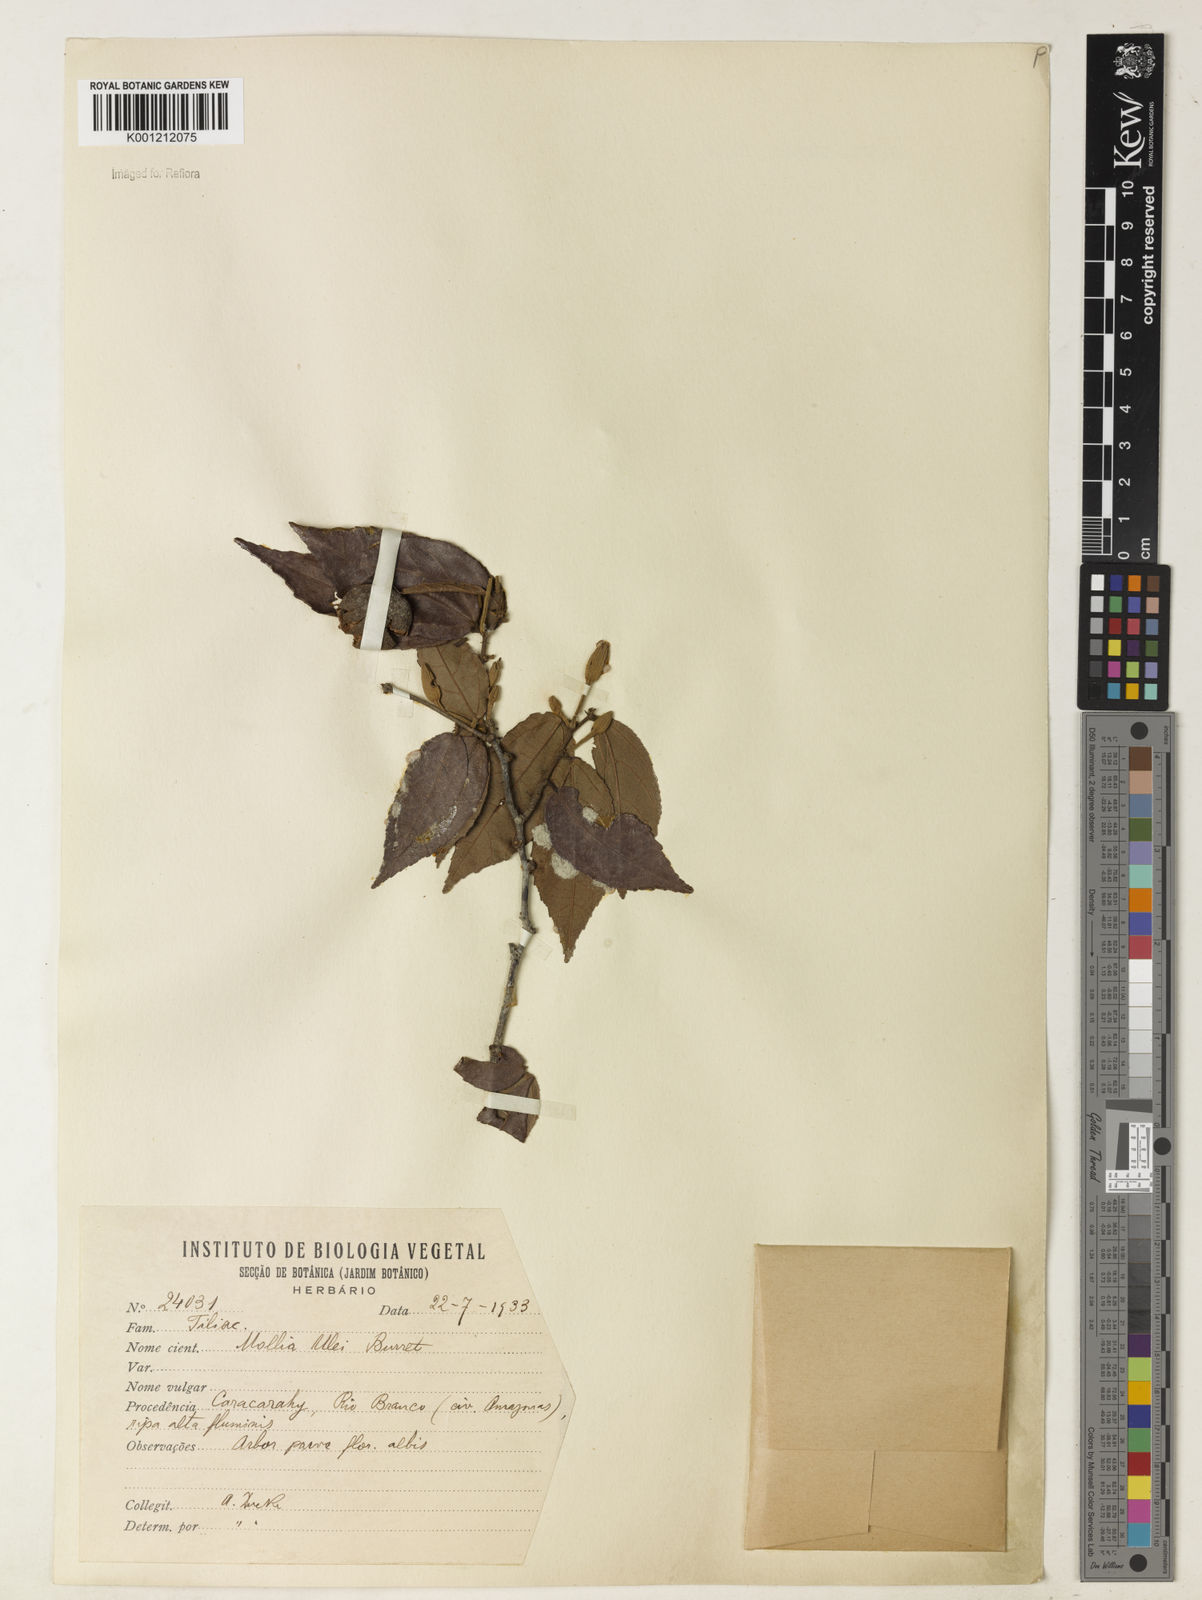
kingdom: Plantae
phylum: Tracheophyta
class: Magnoliopsida
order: Malvales
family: Malvaceae
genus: Mollia
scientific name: Mollia ulei
